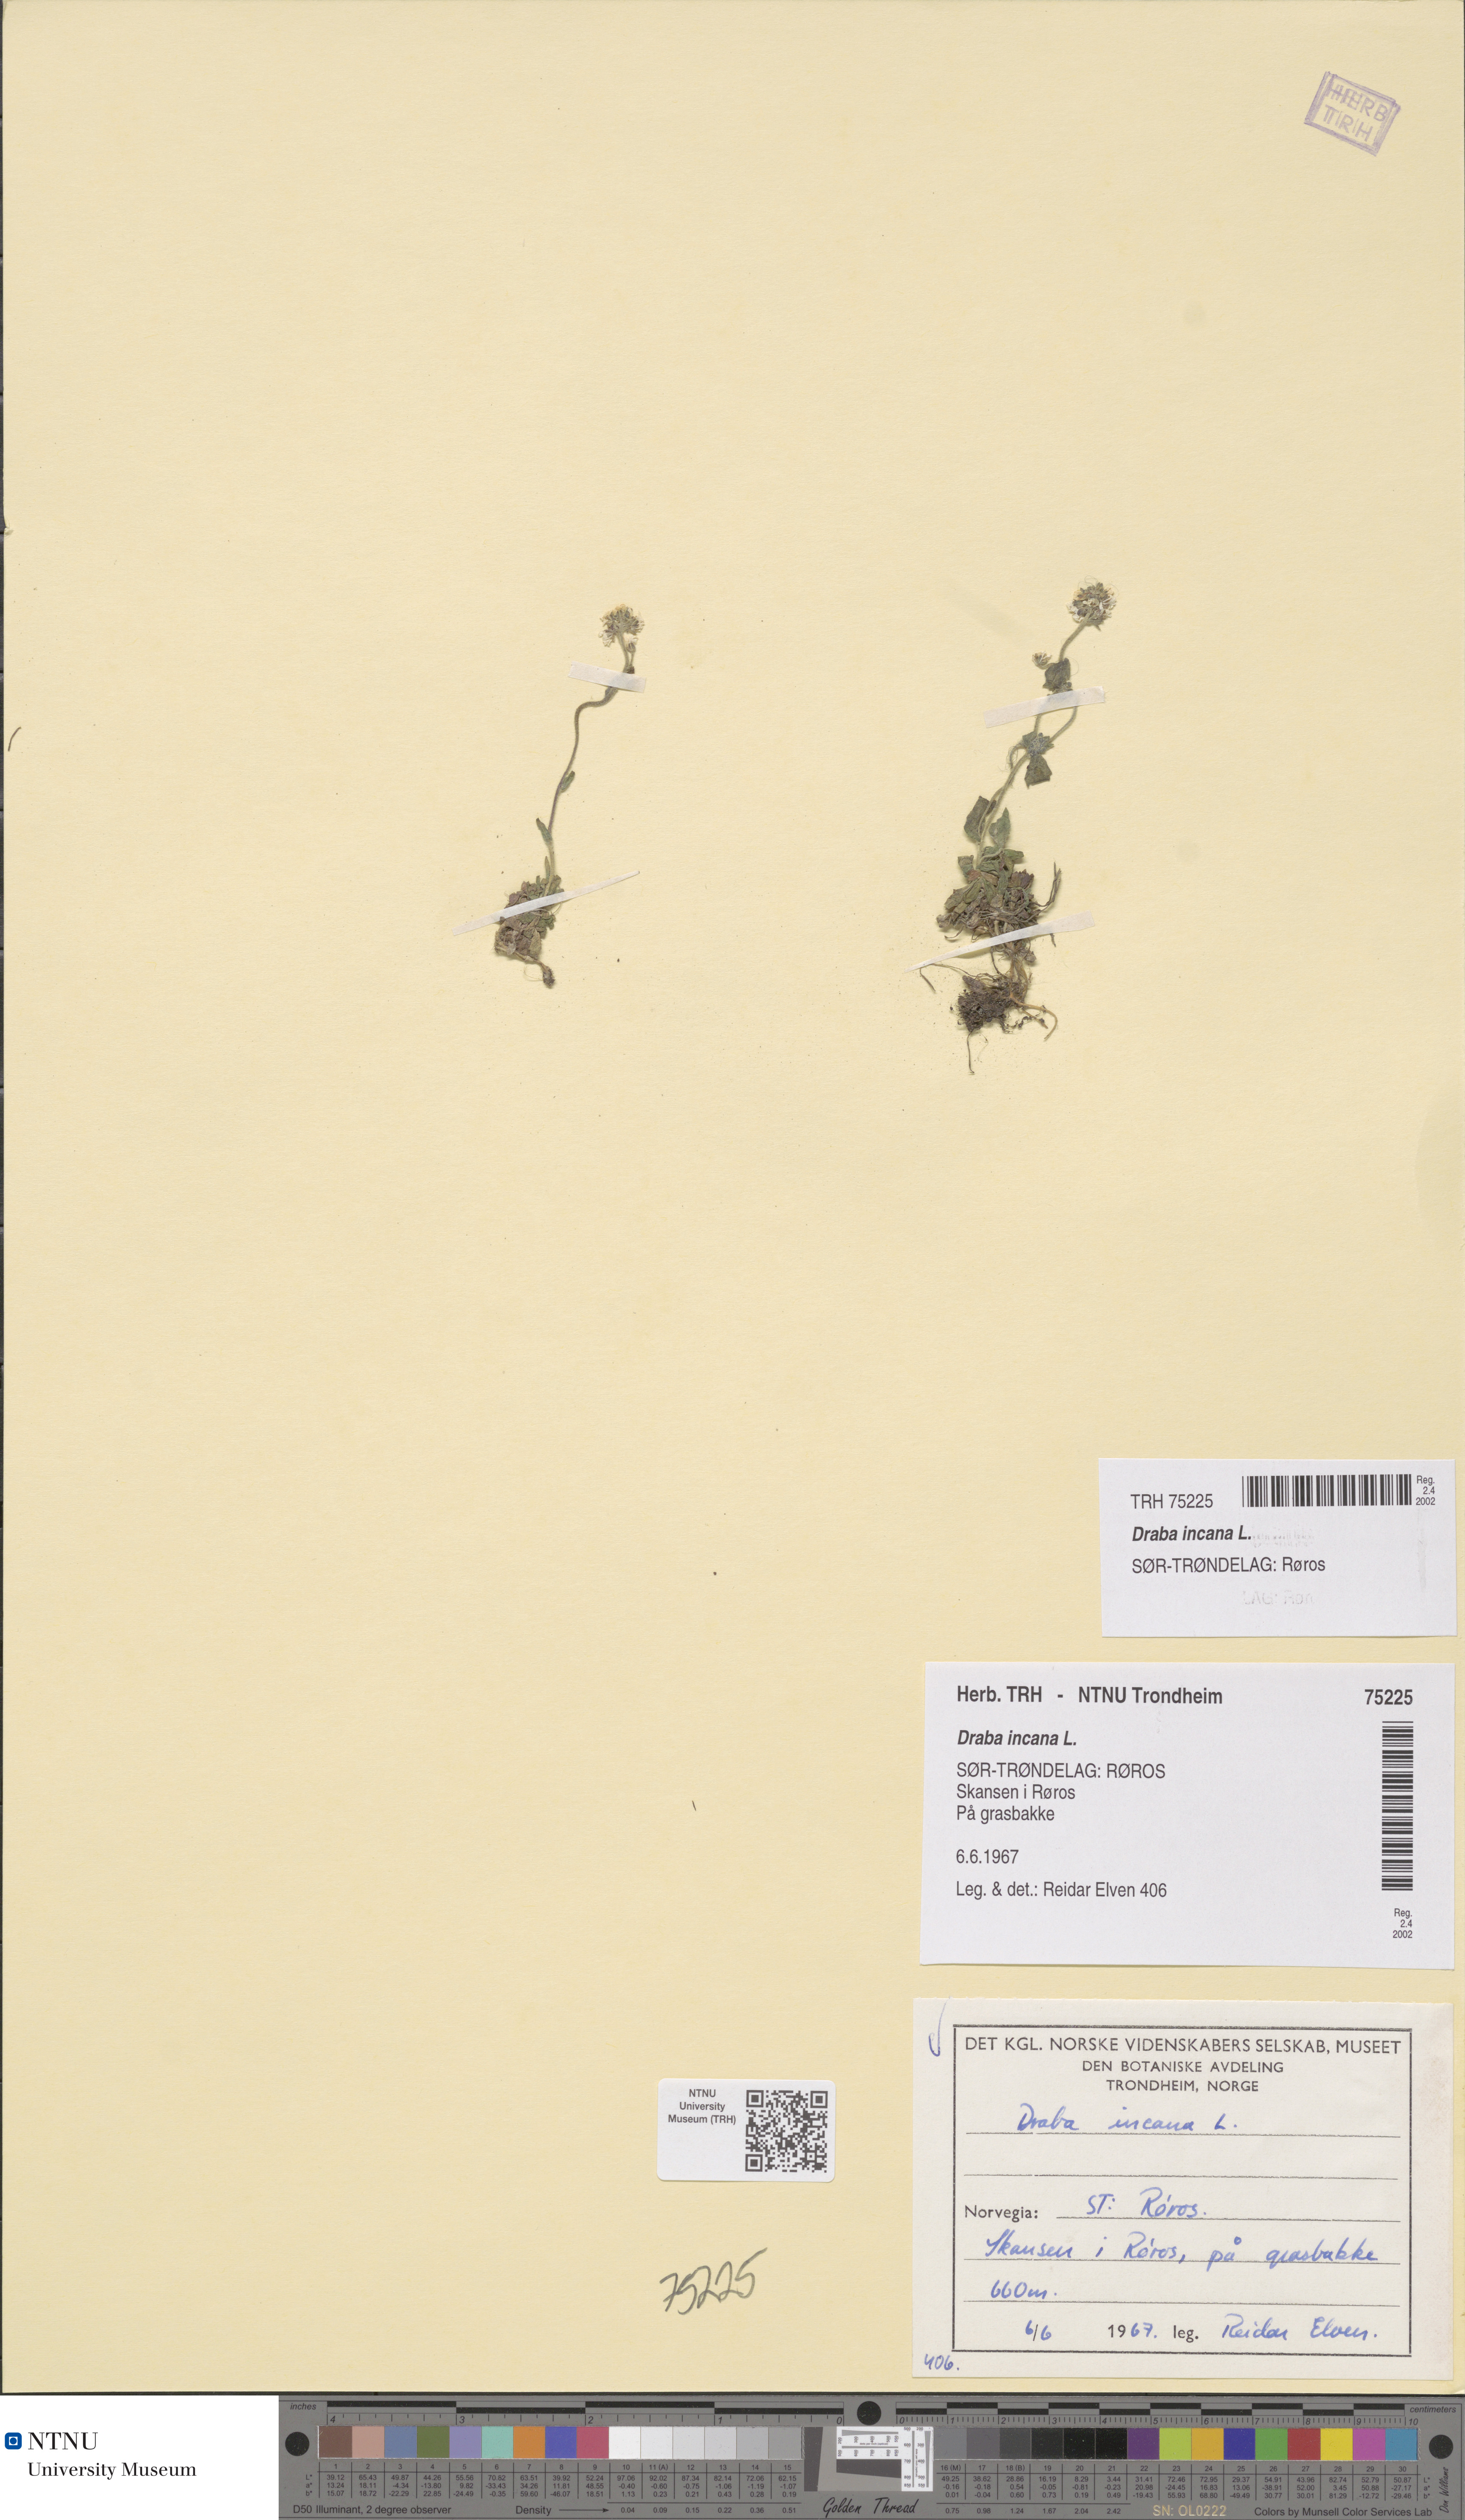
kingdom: Plantae
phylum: Tracheophyta
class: Magnoliopsida
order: Brassicales
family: Brassicaceae
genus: Draba
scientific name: Draba incana
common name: Hoary whitlow-grass
